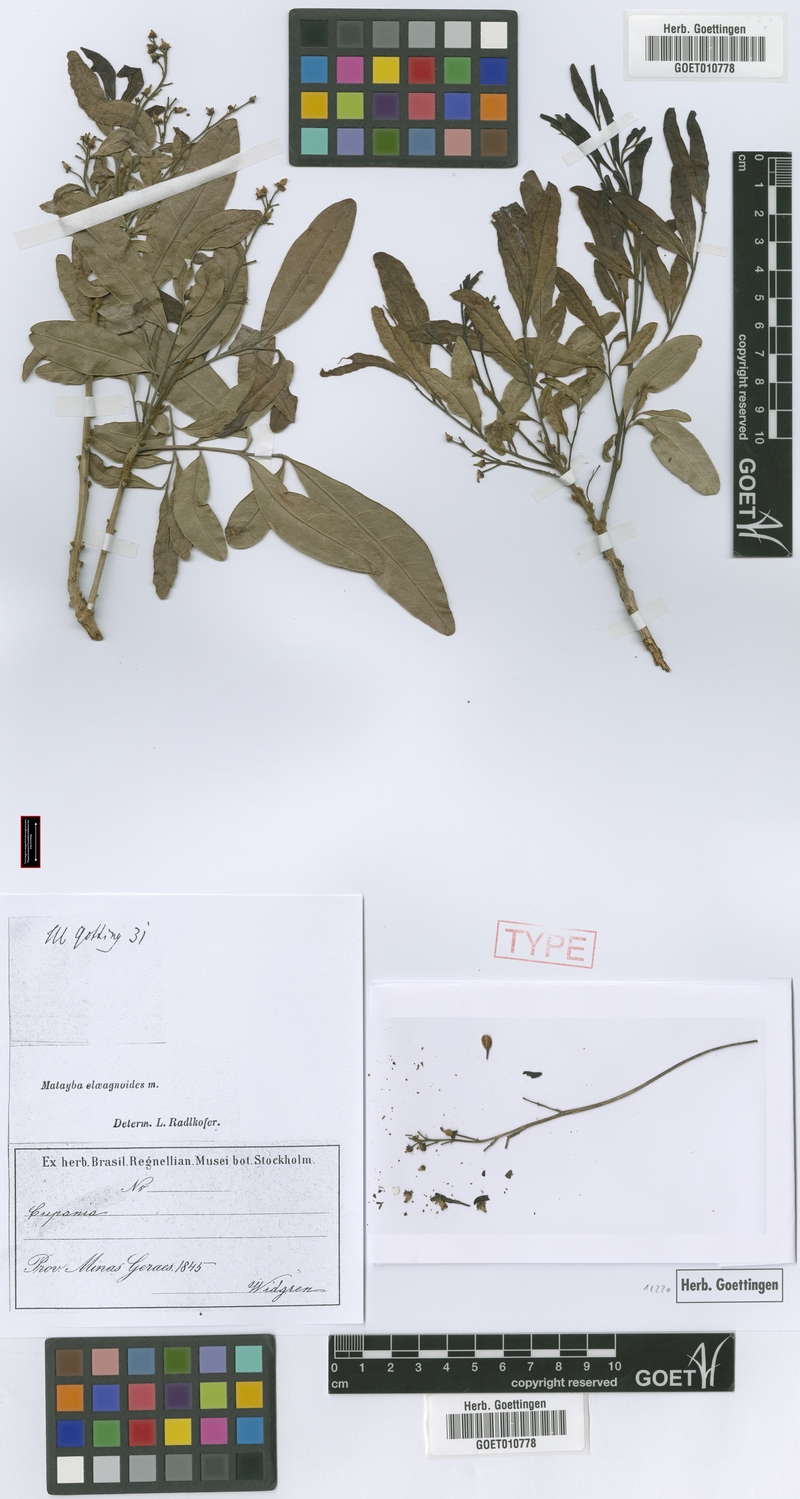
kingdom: Plantae
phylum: Tracheophyta
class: Magnoliopsida
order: Sapindales
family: Sapindaceae
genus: Matayba
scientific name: Matayba elaeagnoides
